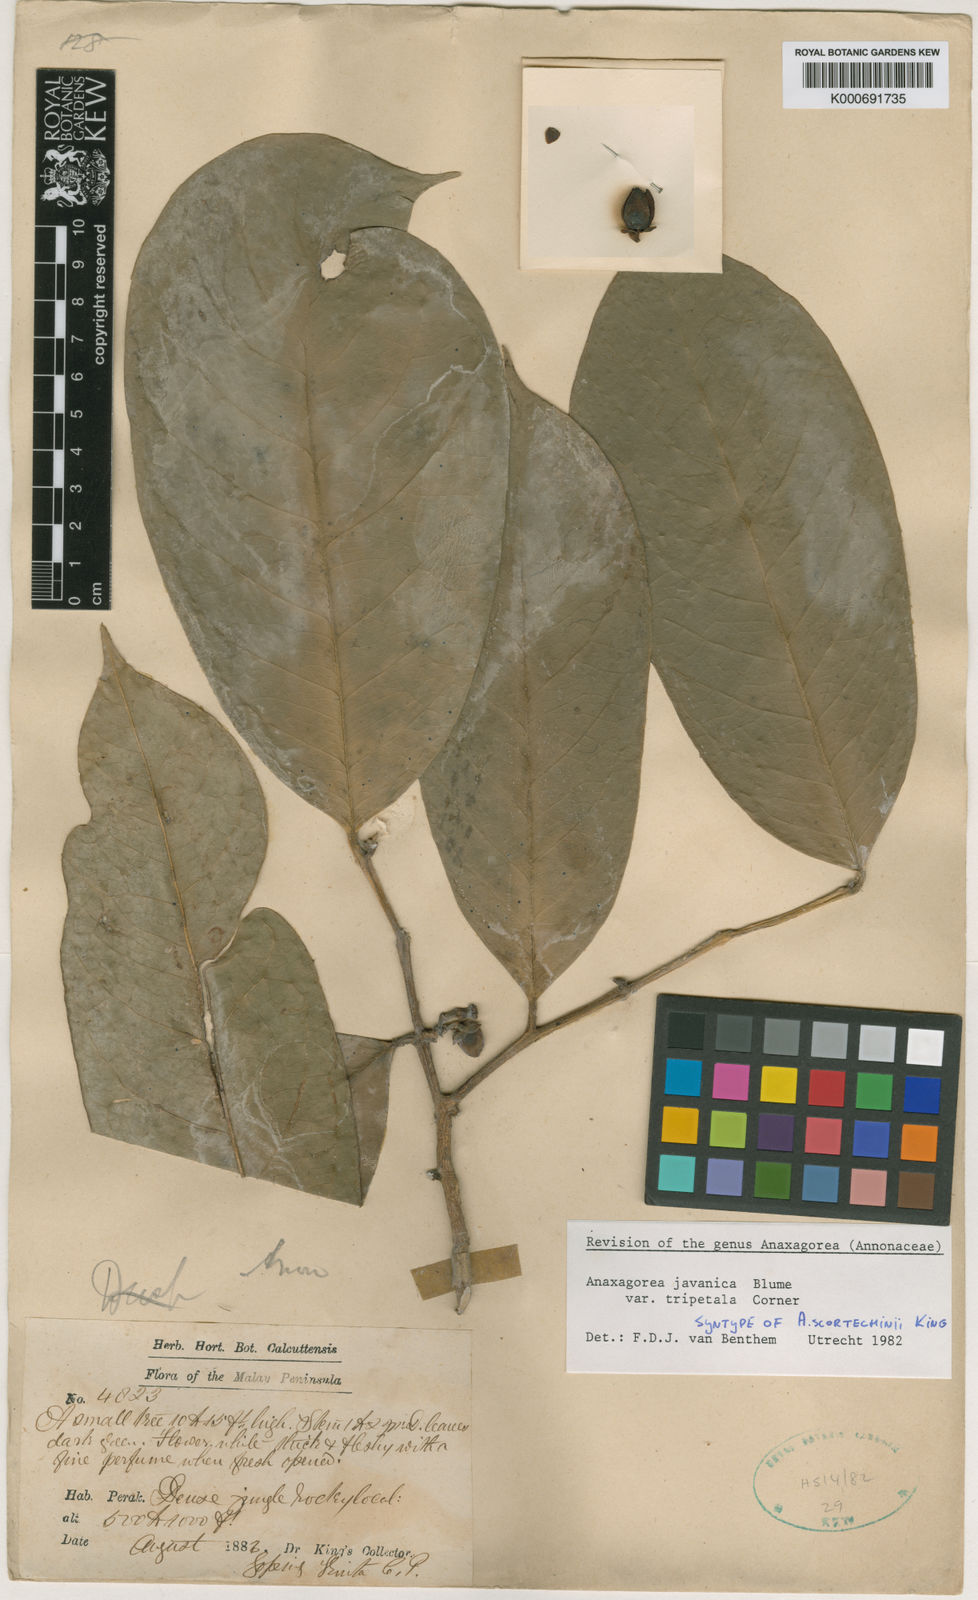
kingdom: Plantae
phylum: Tracheophyta
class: Magnoliopsida
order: Magnoliales
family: Annonaceae
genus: Anaxagorea
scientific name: Anaxagorea javanica
